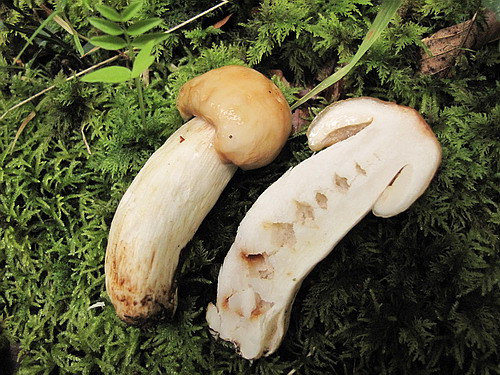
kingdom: Fungi
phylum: Basidiomycota
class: Agaricomycetes
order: Russulales
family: Russulaceae
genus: Russula
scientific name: Russula grata
